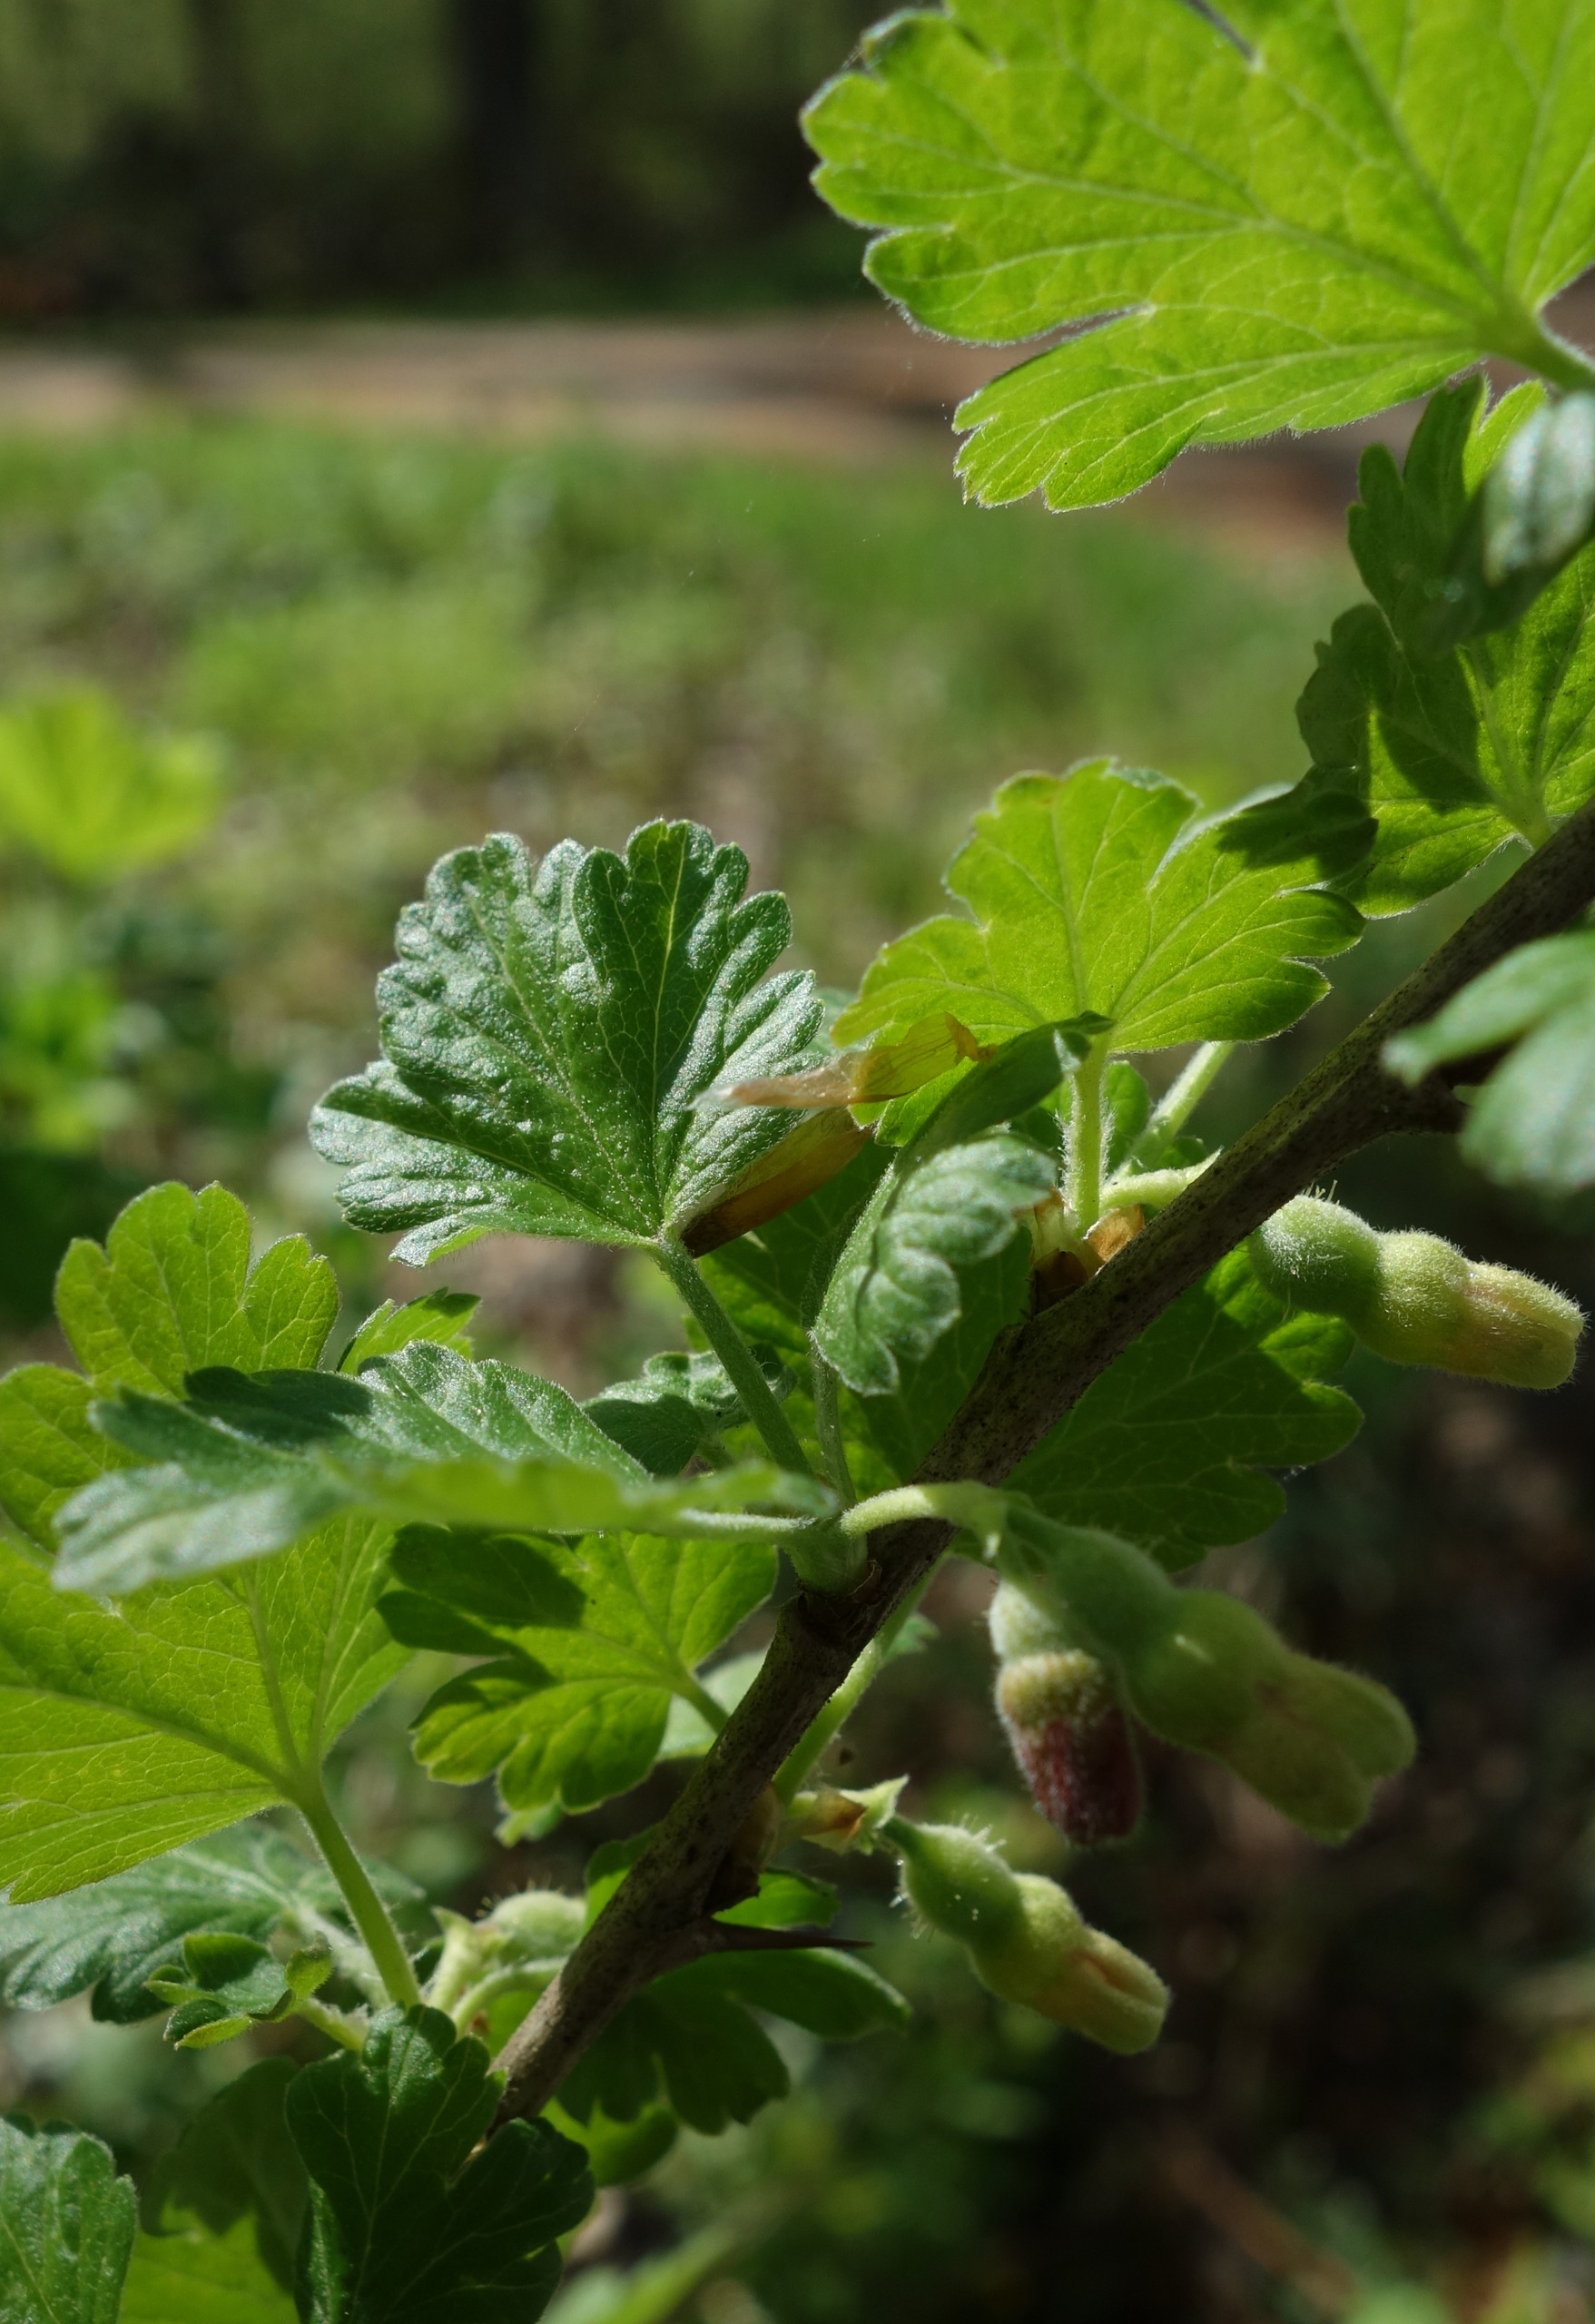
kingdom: Plantae
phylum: Tracheophyta
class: Magnoliopsida
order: Saxifragales
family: Grossulariaceae
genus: Ribes
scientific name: Ribes uva-crispa
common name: Stikkelsbær
